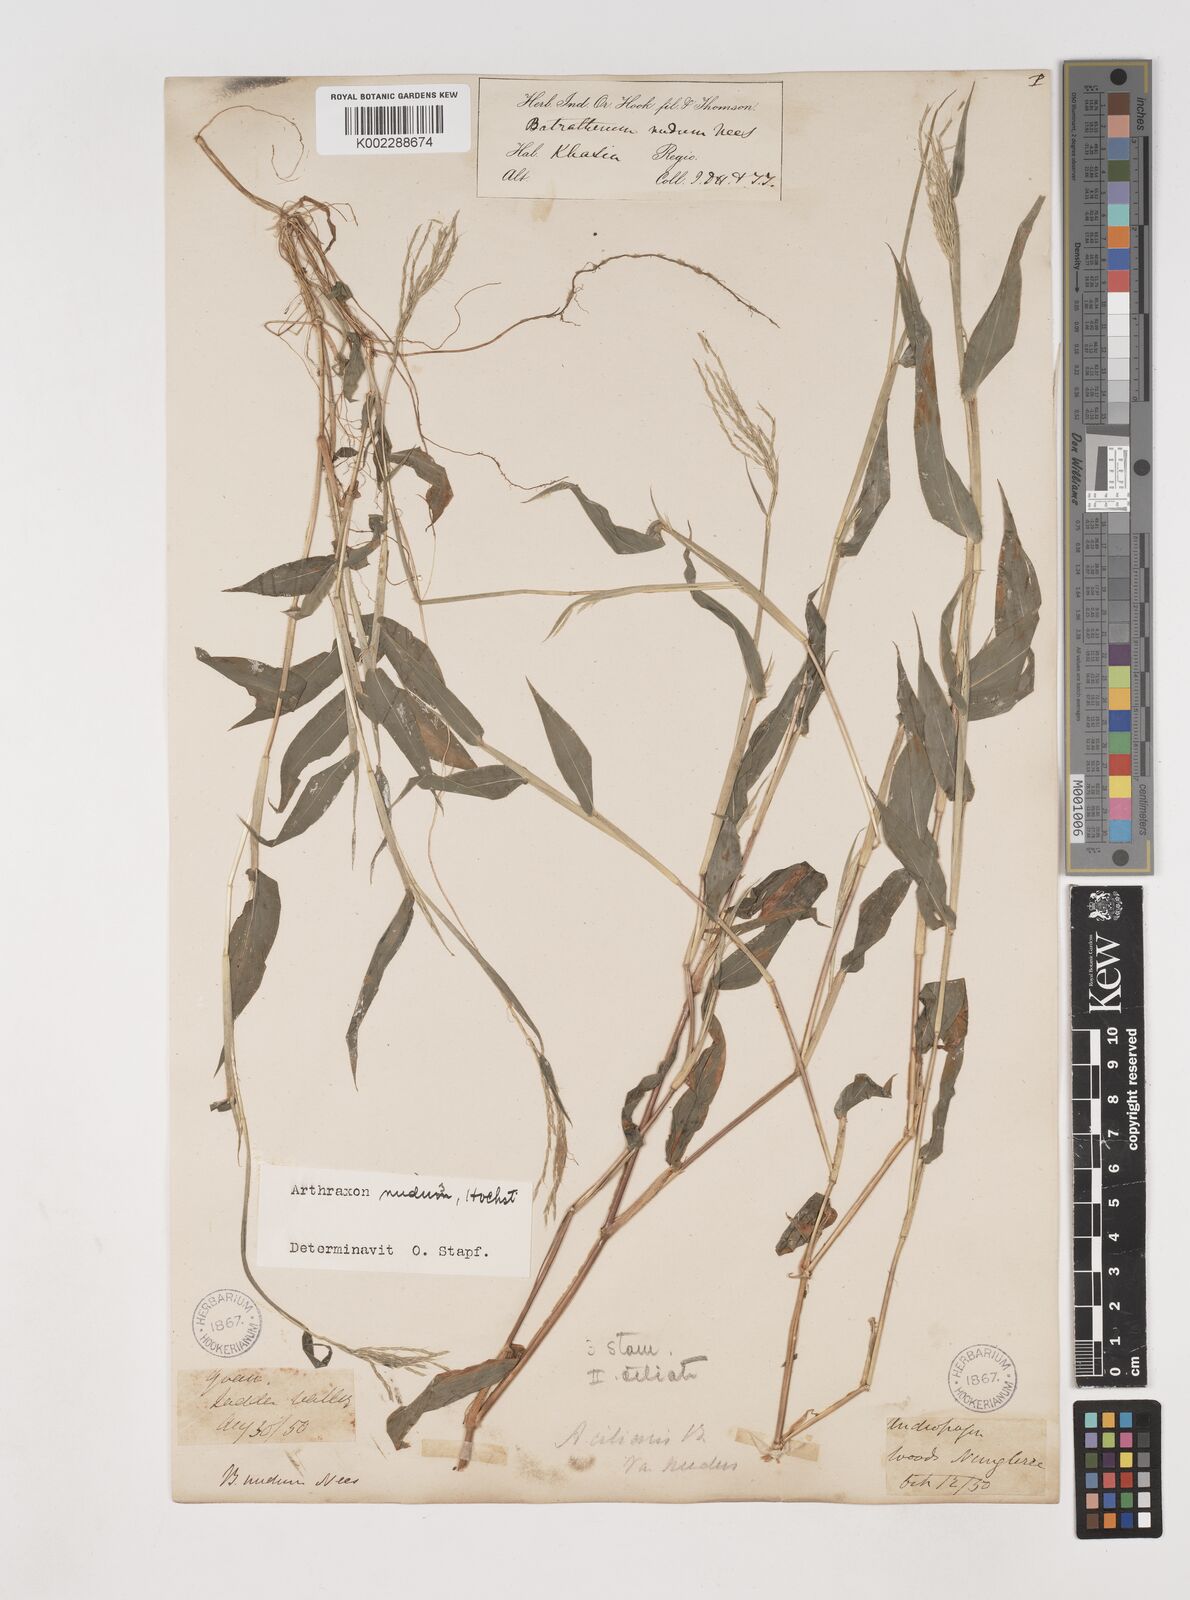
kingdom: Plantae
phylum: Tracheophyta
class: Liliopsida
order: Poales
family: Poaceae
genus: Arthraxon
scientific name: Arthraxon nudus
